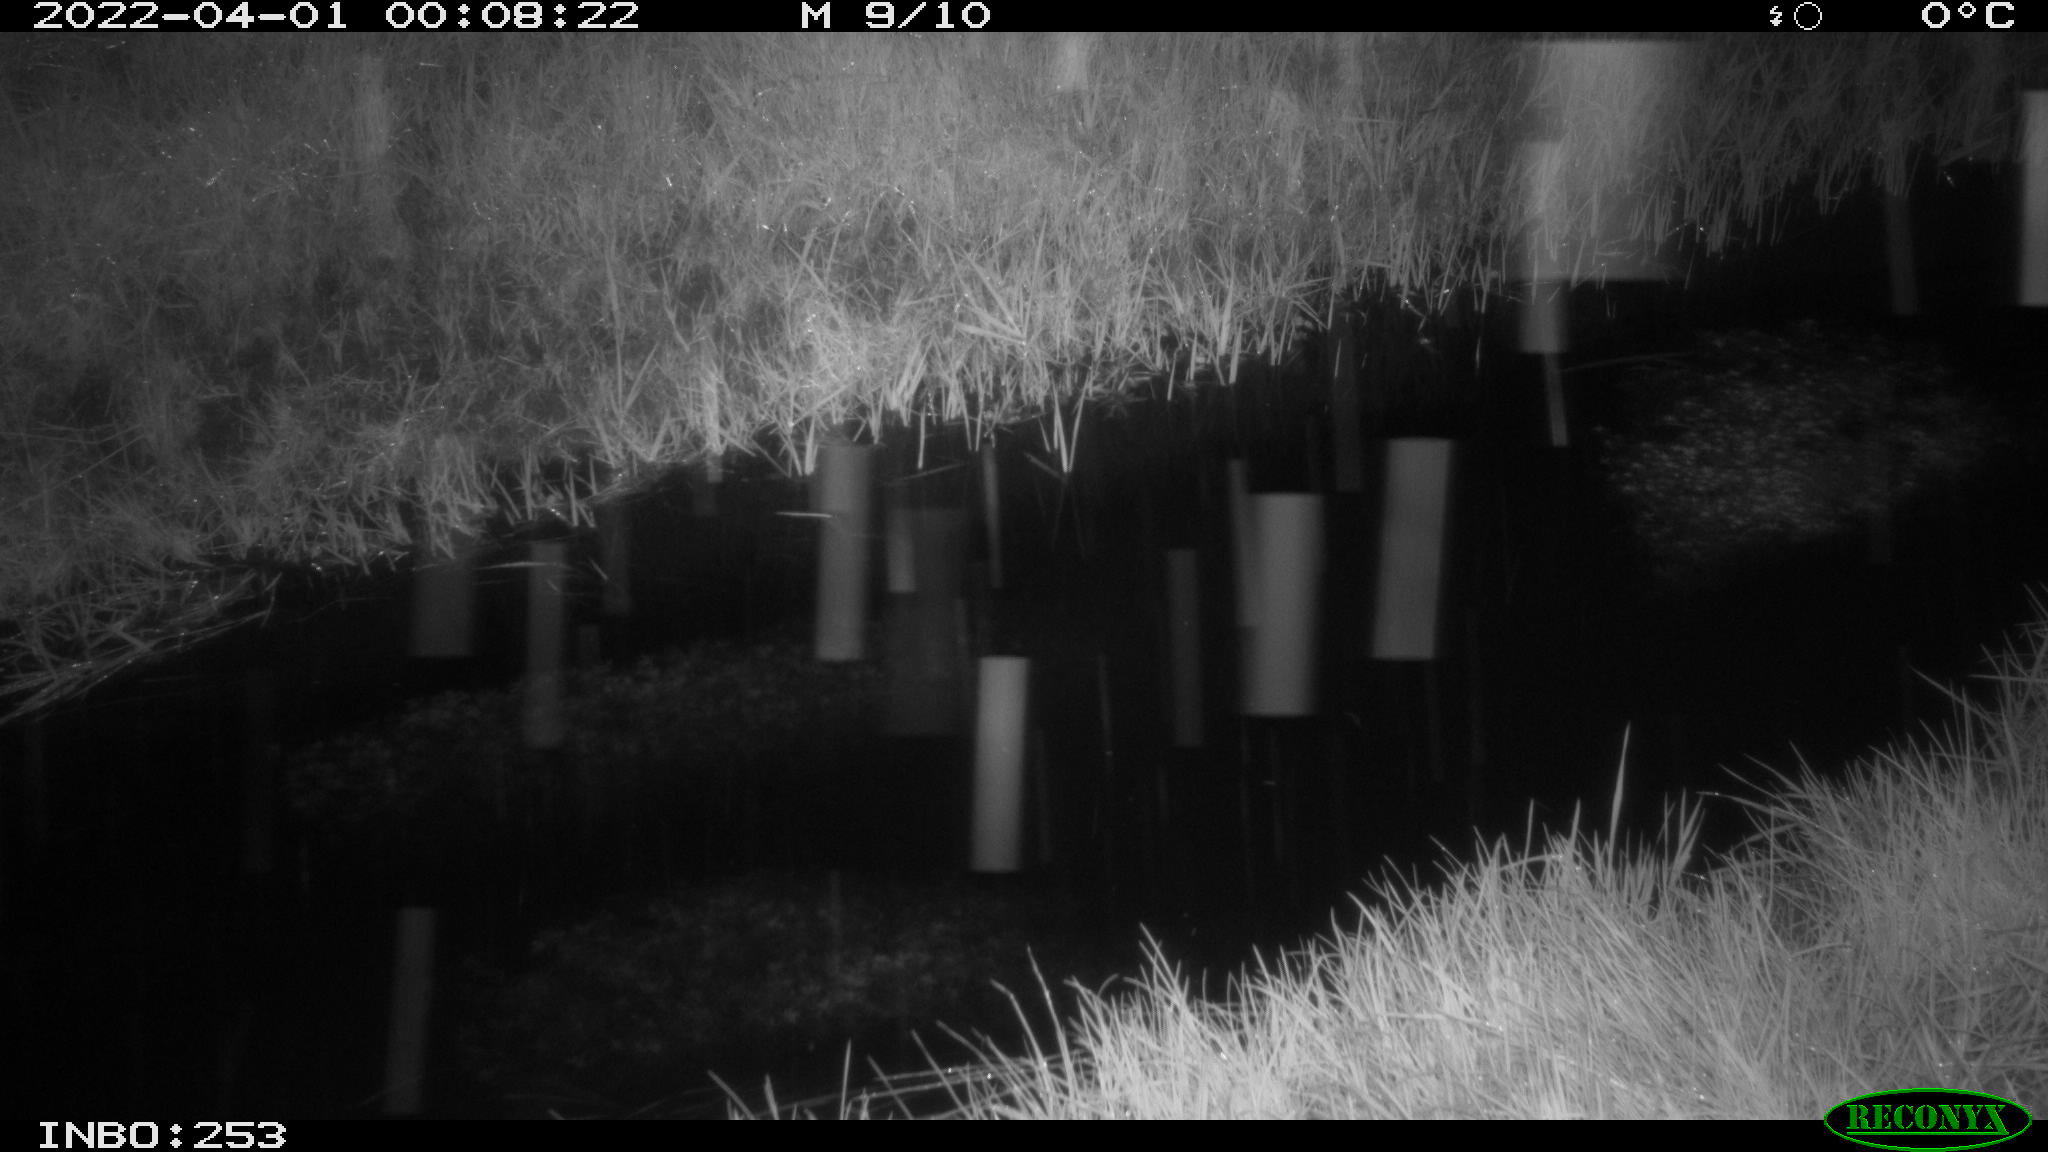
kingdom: Animalia
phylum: Chordata
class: Aves
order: Anseriformes
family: Anatidae
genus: Anas
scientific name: Anas platyrhynchos
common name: Mallard
